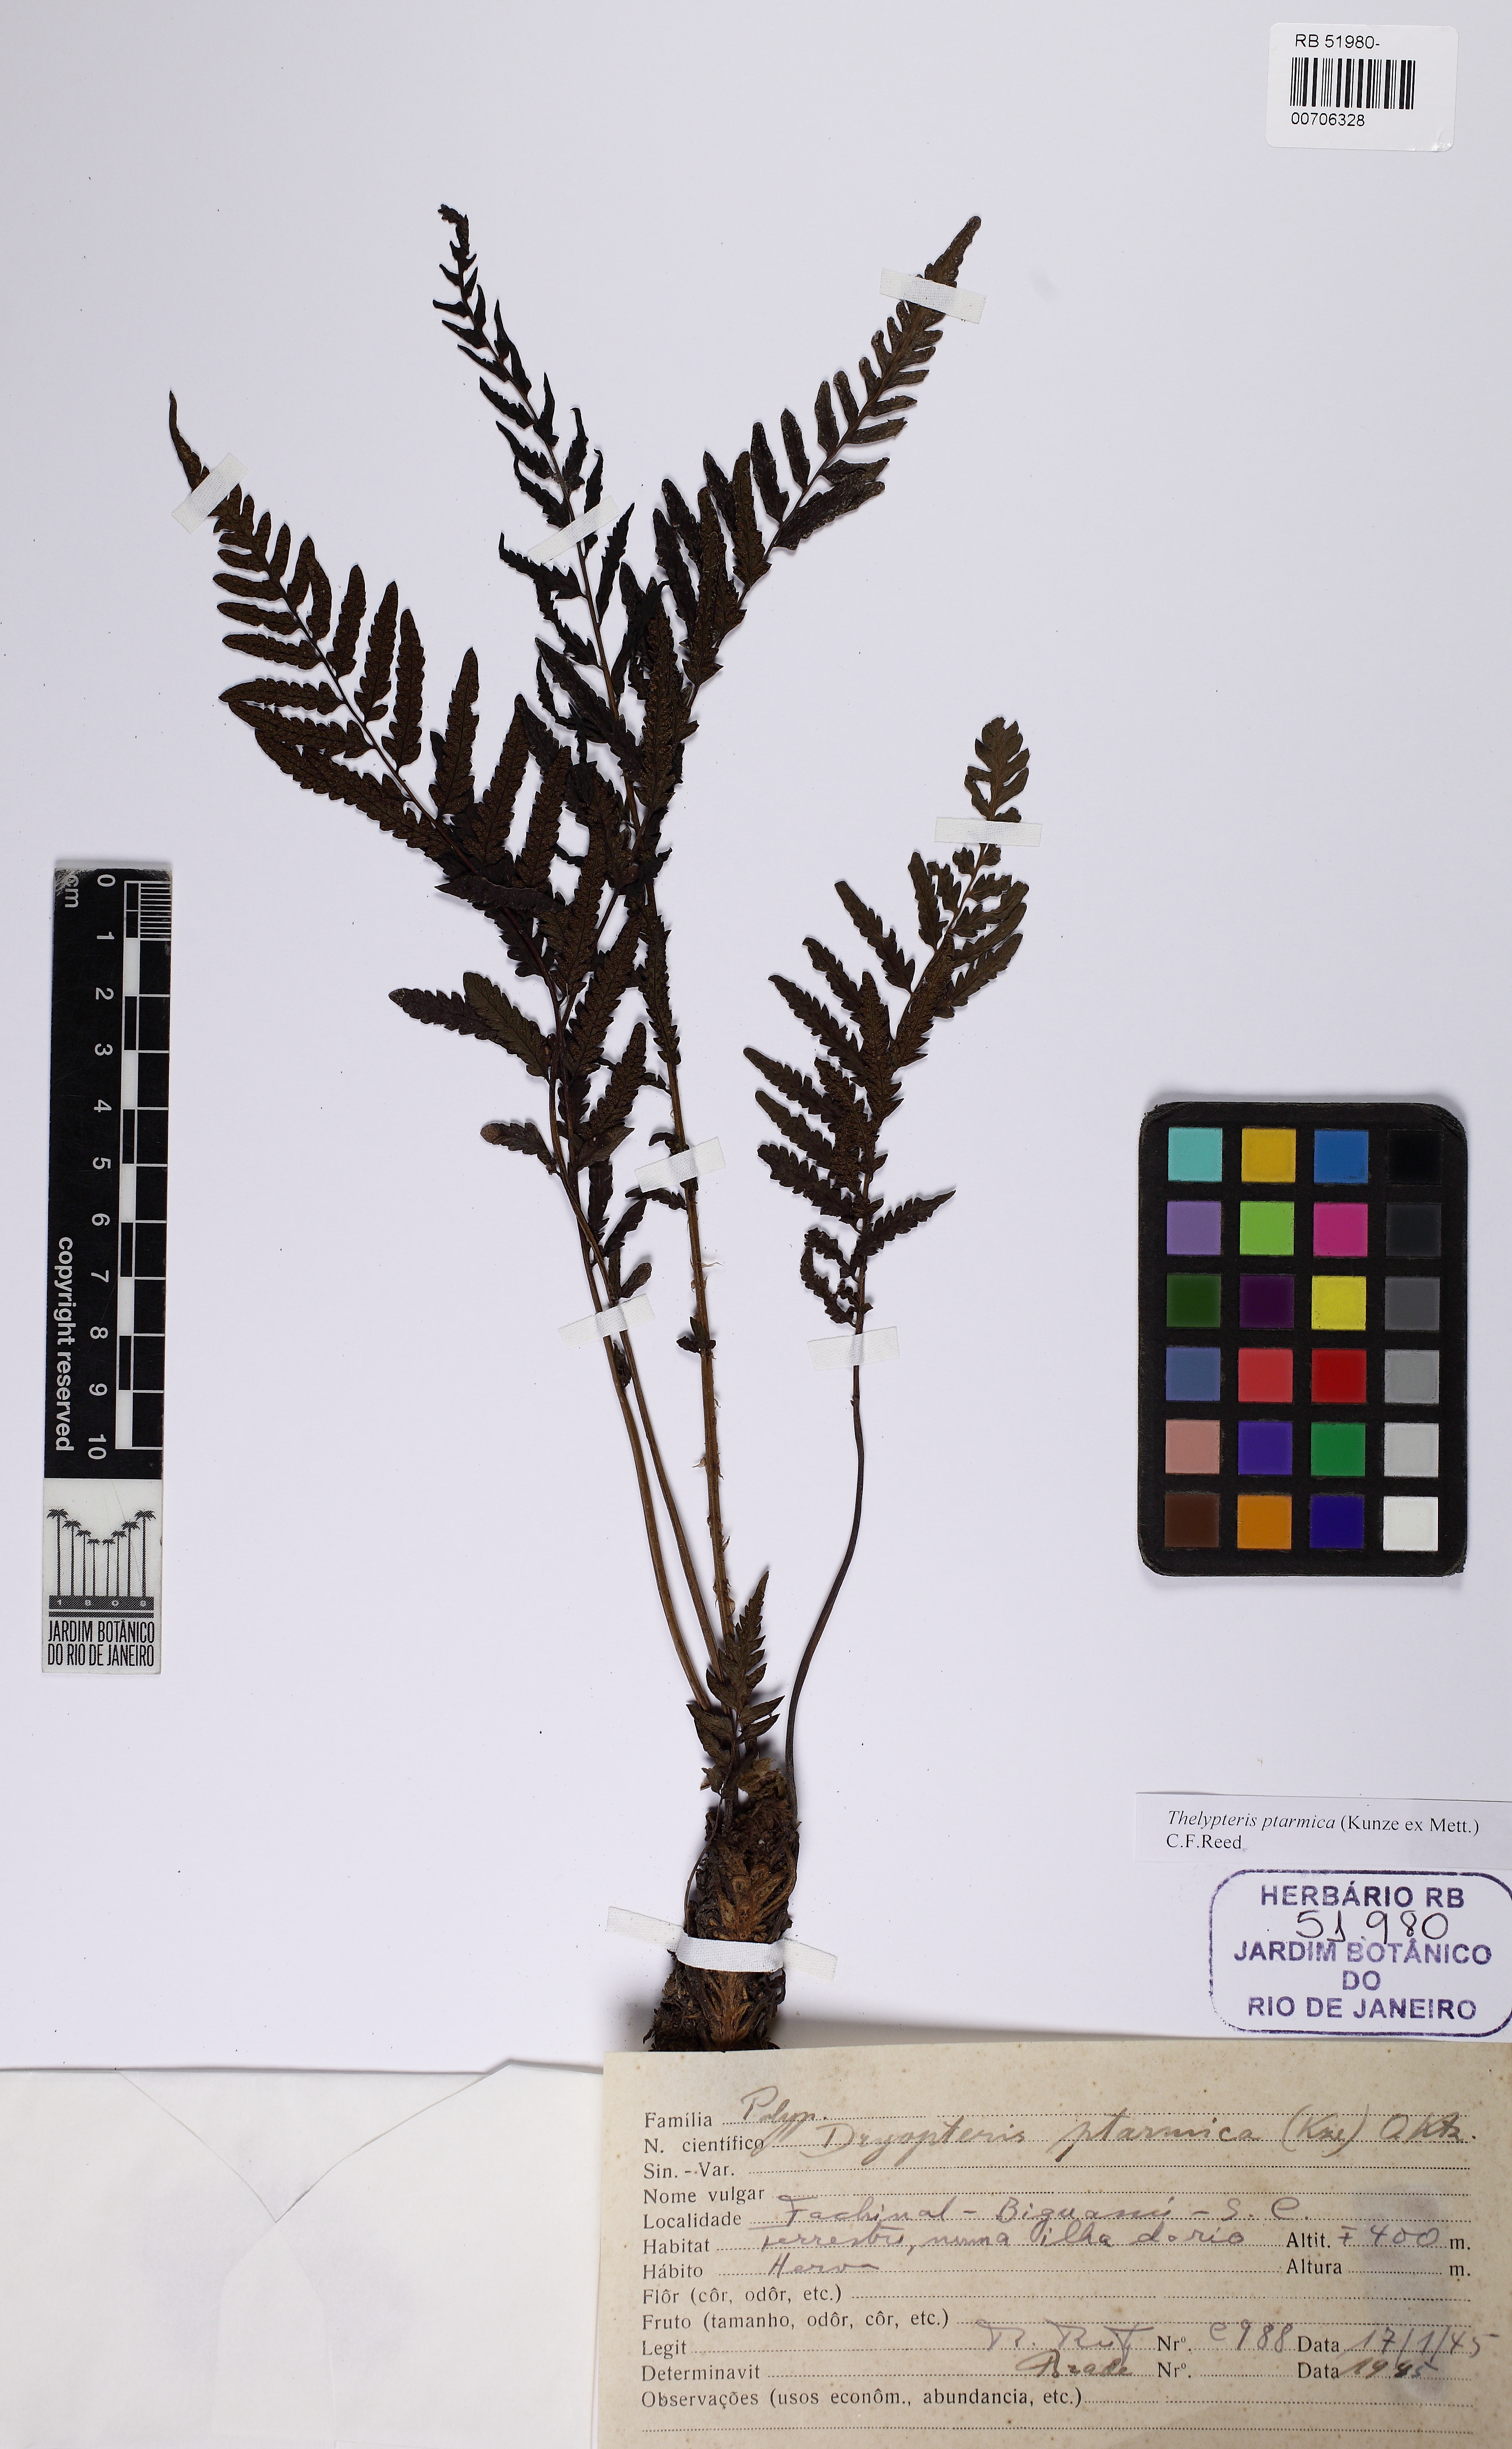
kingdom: Plantae
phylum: Tracheophyta
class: Polypodiopsida
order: Polypodiales
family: Thelypteridaceae
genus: Amauropelta
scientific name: Amauropelta ptarmica
